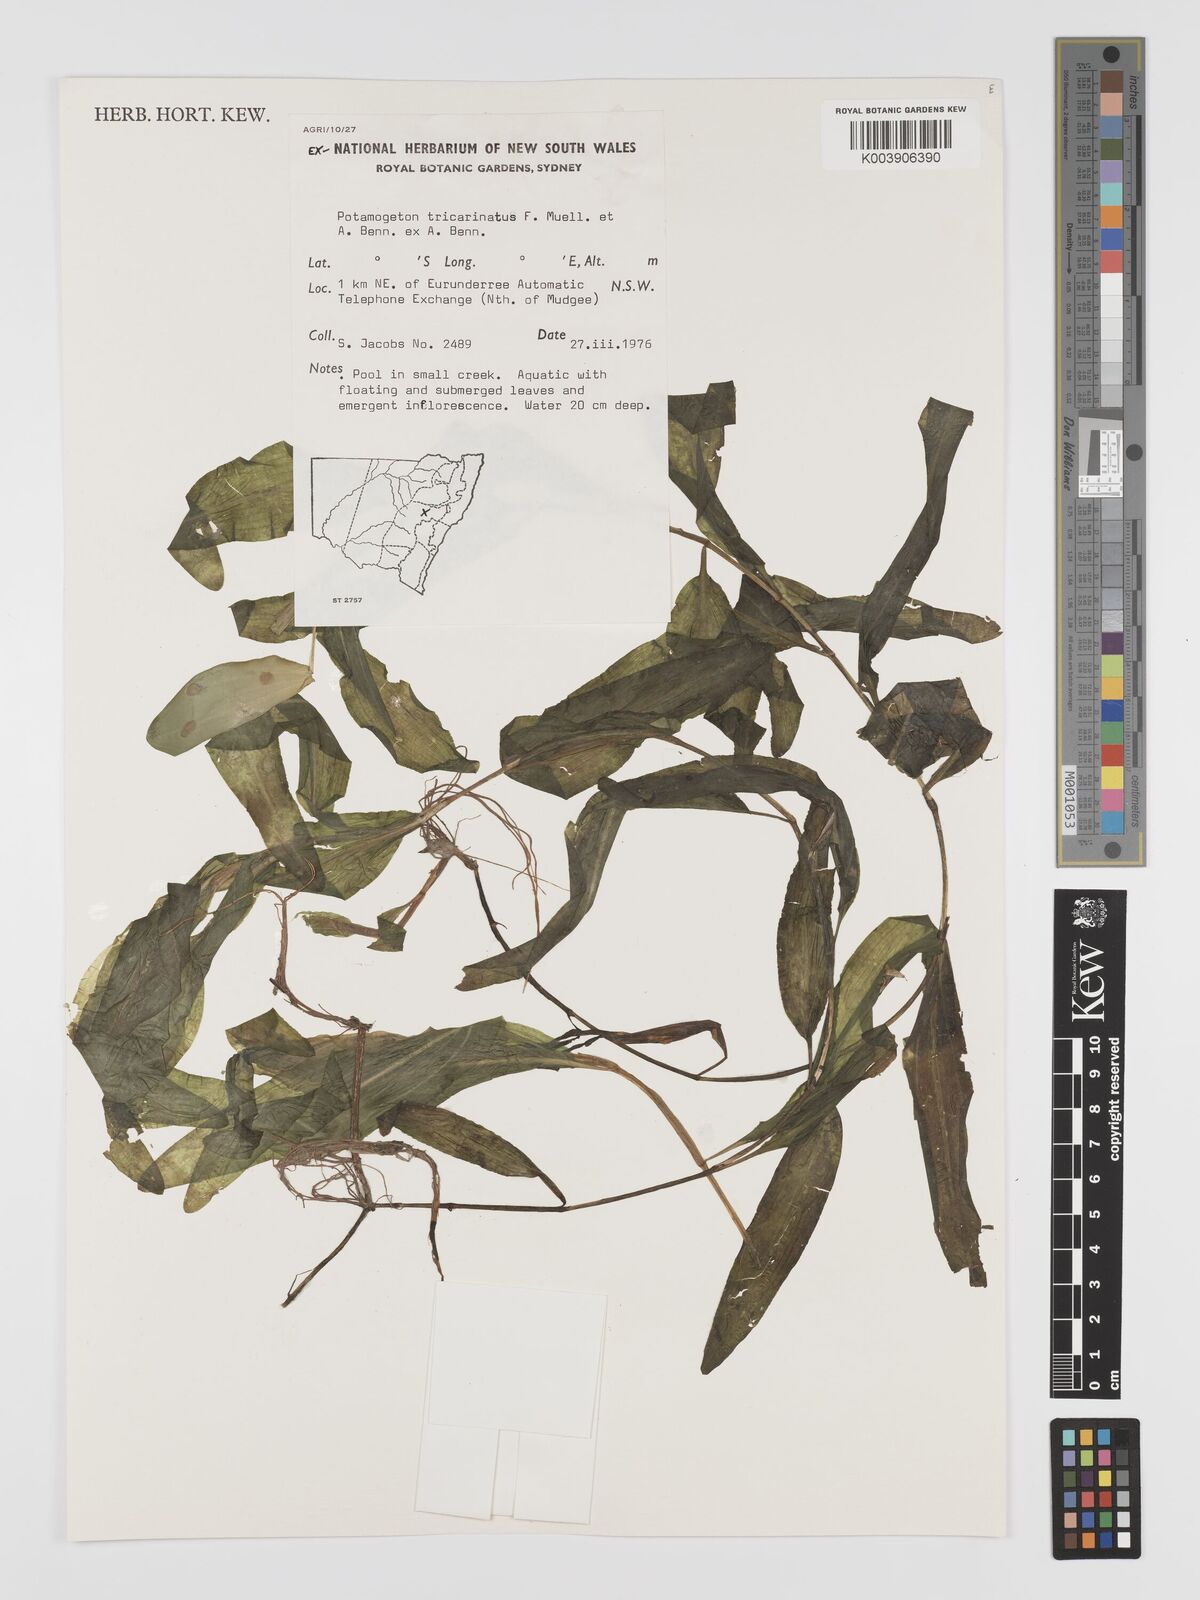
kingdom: Plantae
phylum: Tracheophyta
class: Liliopsida
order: Alismatales
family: Potamogetonaceae
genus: Potamogeton
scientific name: Potamogeton tricarinatus
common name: Pondweed
